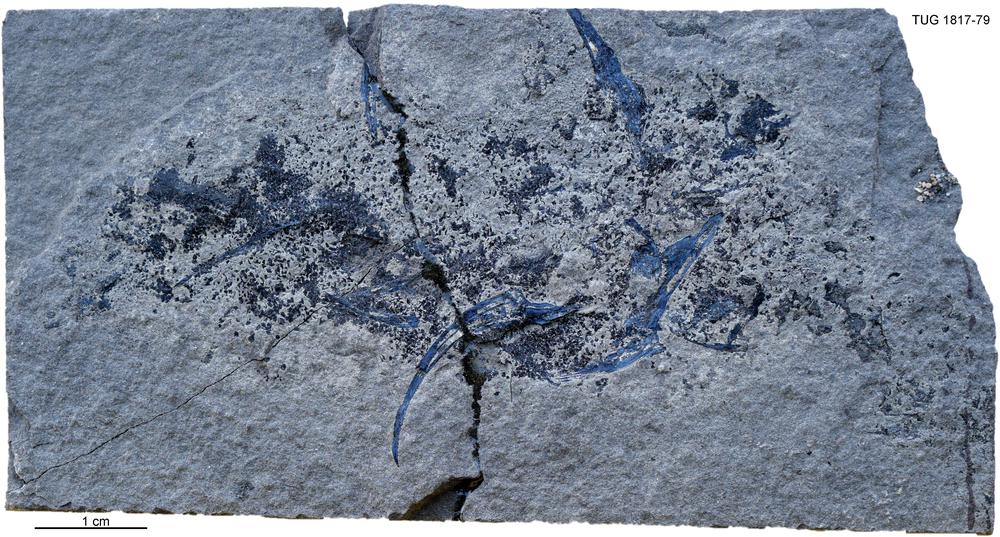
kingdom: Animalia
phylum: Chordata
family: Diplacanthidae
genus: Diplacanthus
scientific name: Diplacanthus crassisimus
